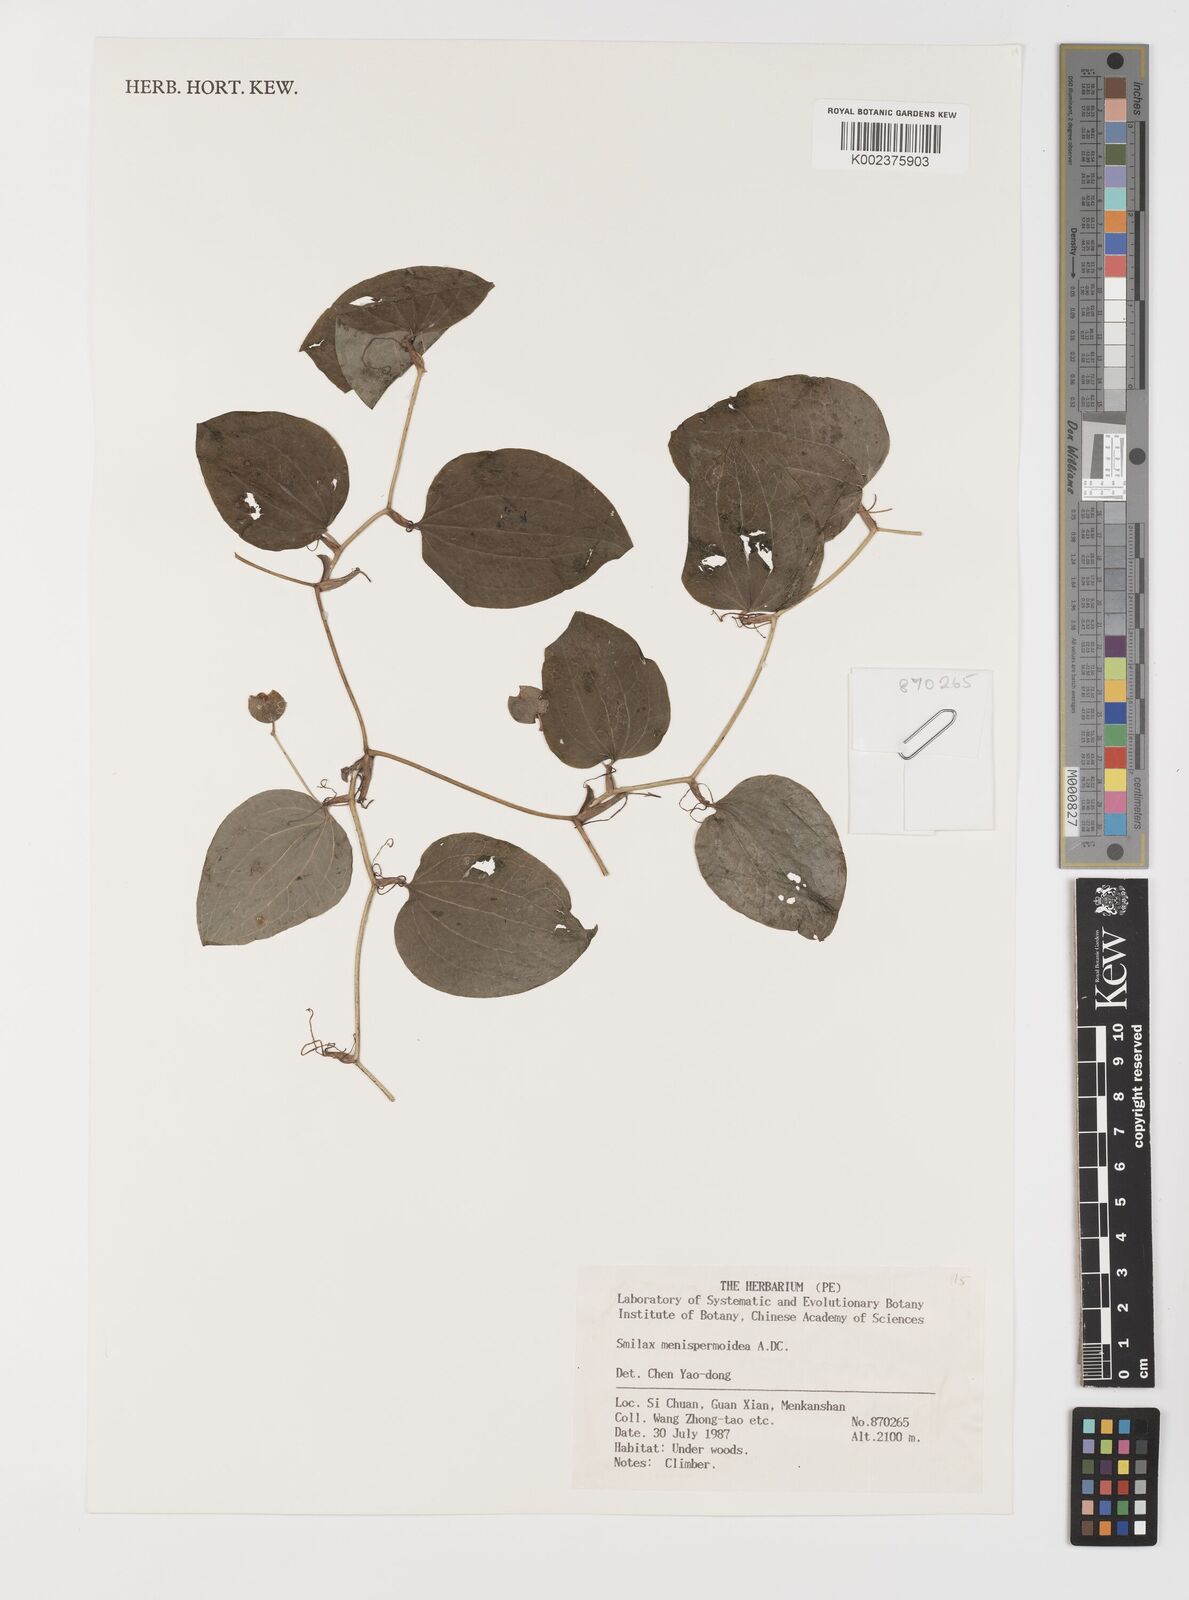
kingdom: Plantae
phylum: Tracheophyta
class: Liliopsida
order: Liliales
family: Smilacaceae
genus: Smilax
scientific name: Smilax menispermoidea
